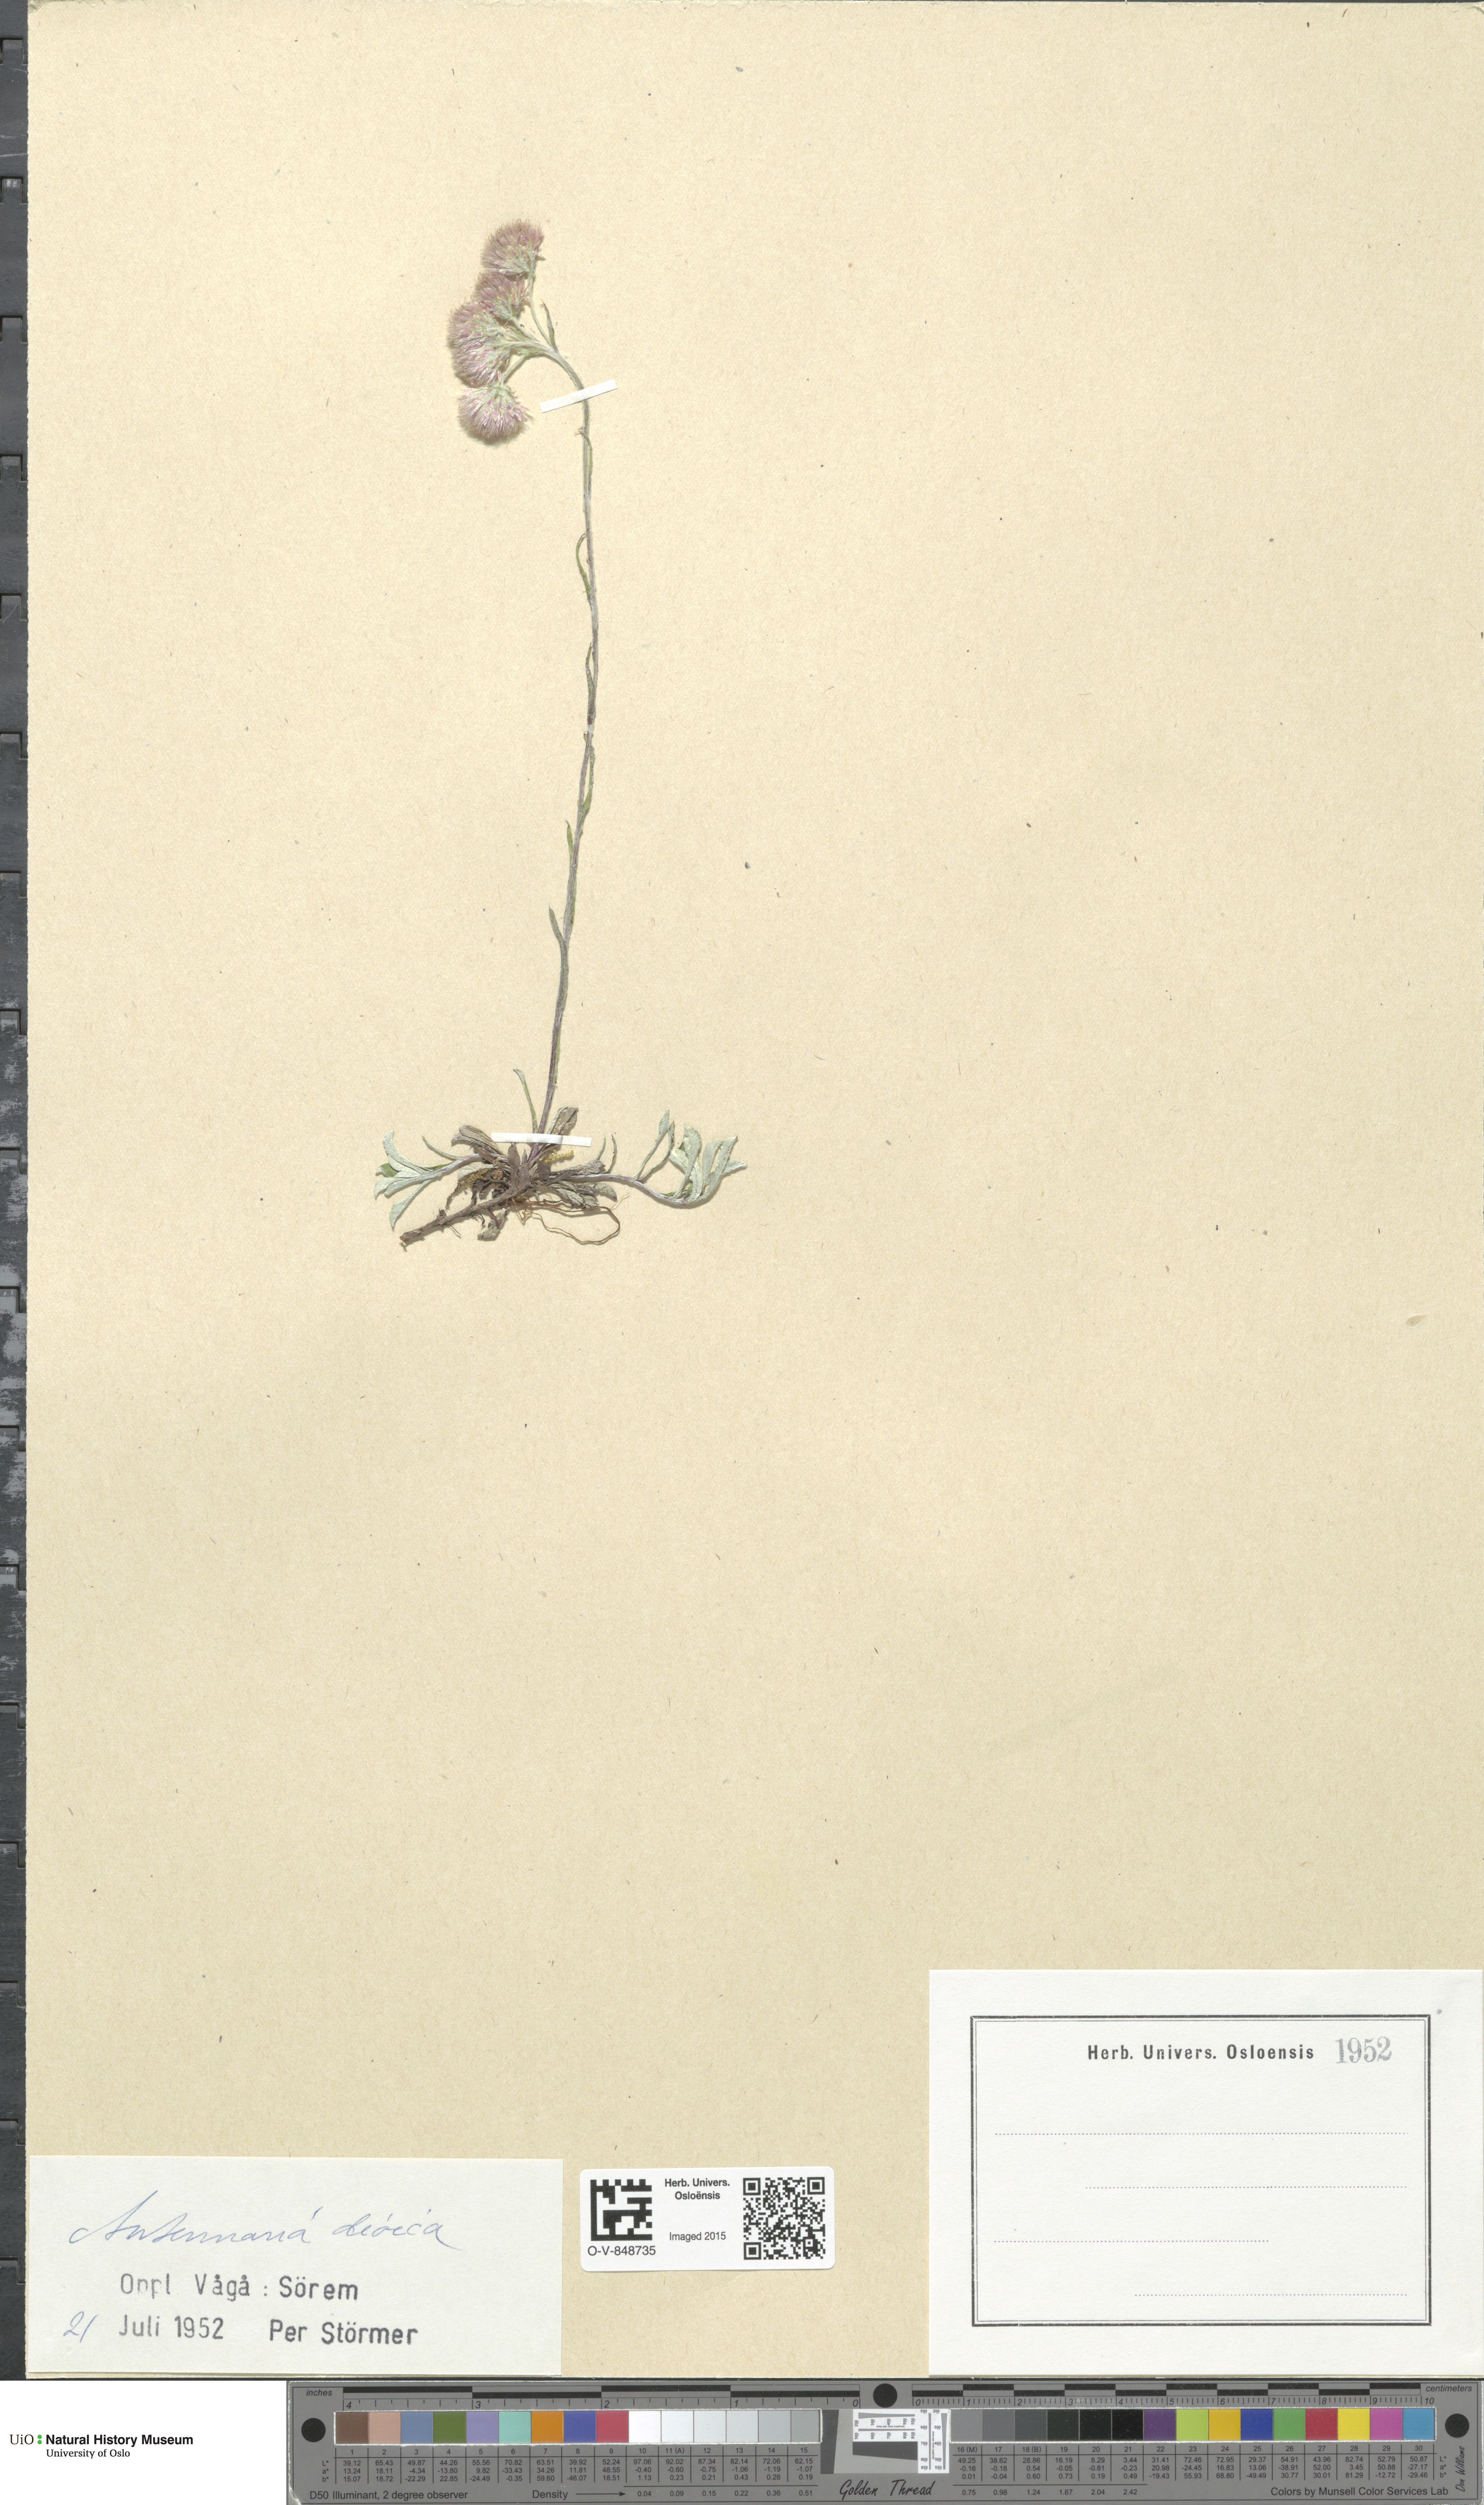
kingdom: Plantae
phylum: Tracheophyta
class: Magnoliopsida
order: Asterales
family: Asteraceae
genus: Antennaria
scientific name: Antennaria dioica
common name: Mountain everlasting
